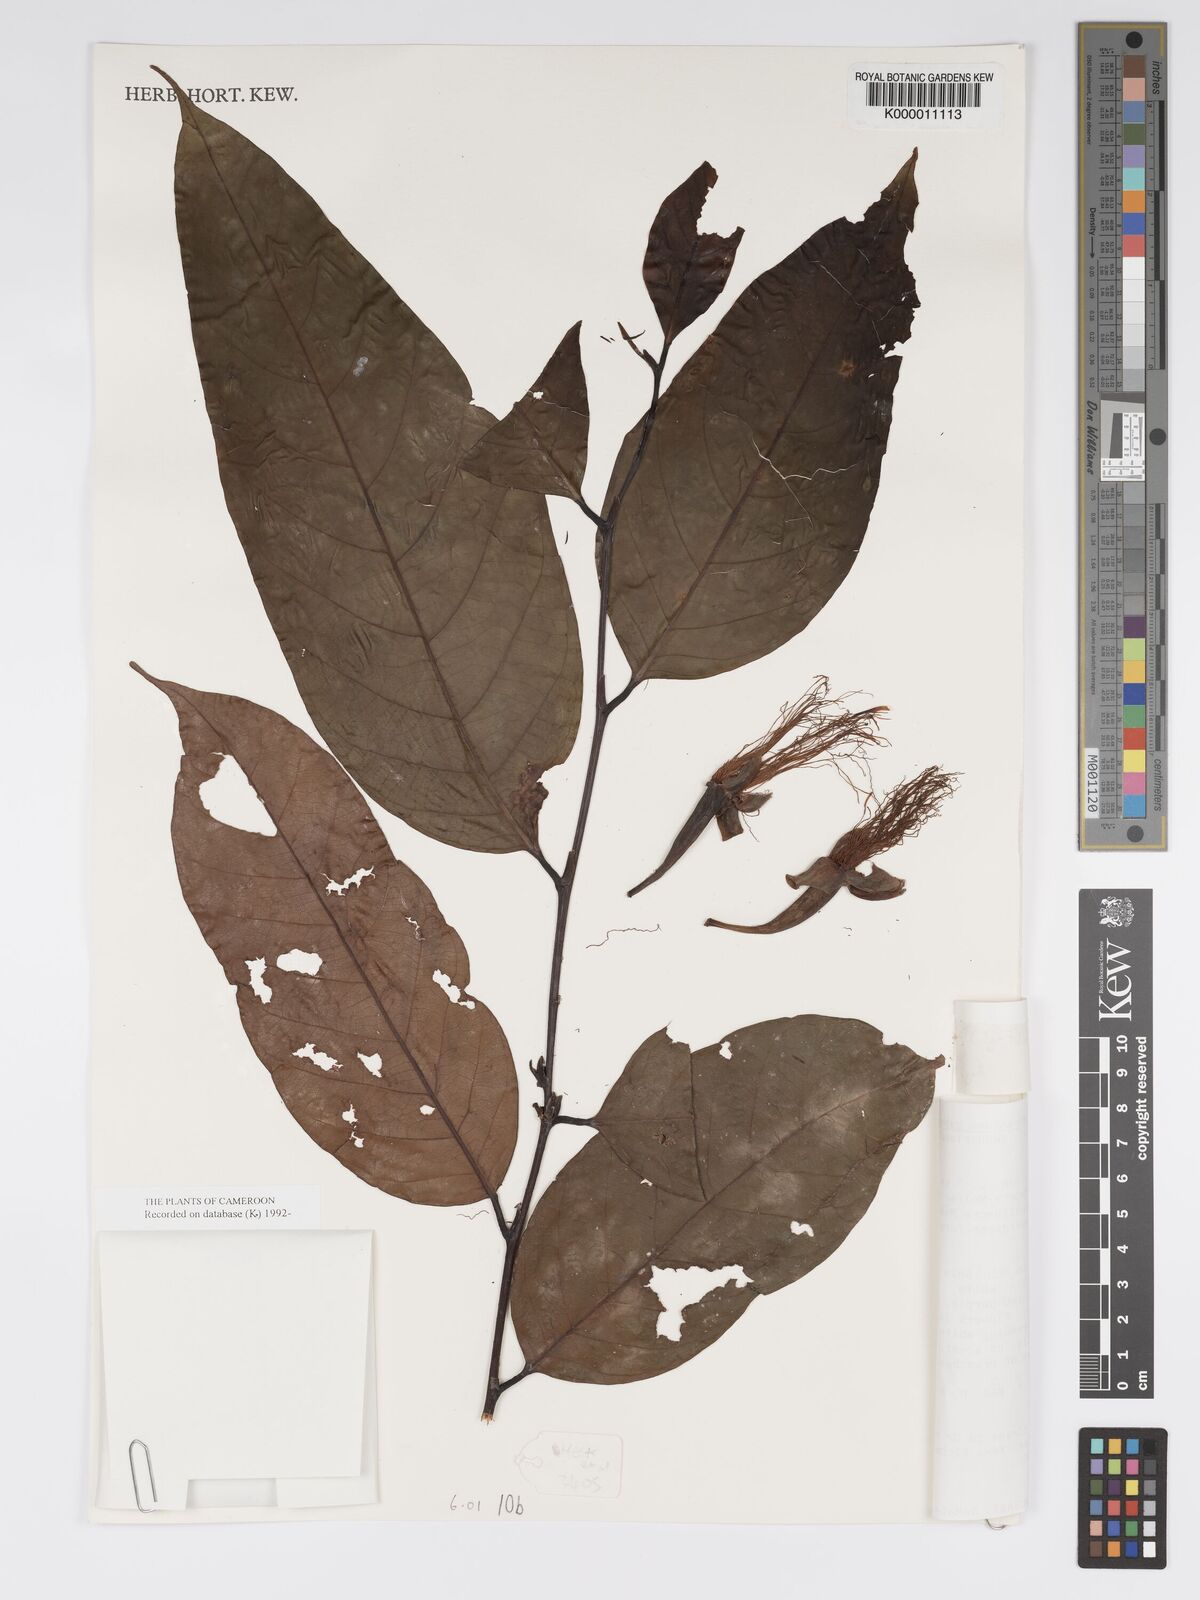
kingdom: Plantae
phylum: Tracheophyta
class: Magnoliopsida
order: Malpighiales
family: Chrysobalanaceae
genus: Maranthes
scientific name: Maranthes gabunensis
